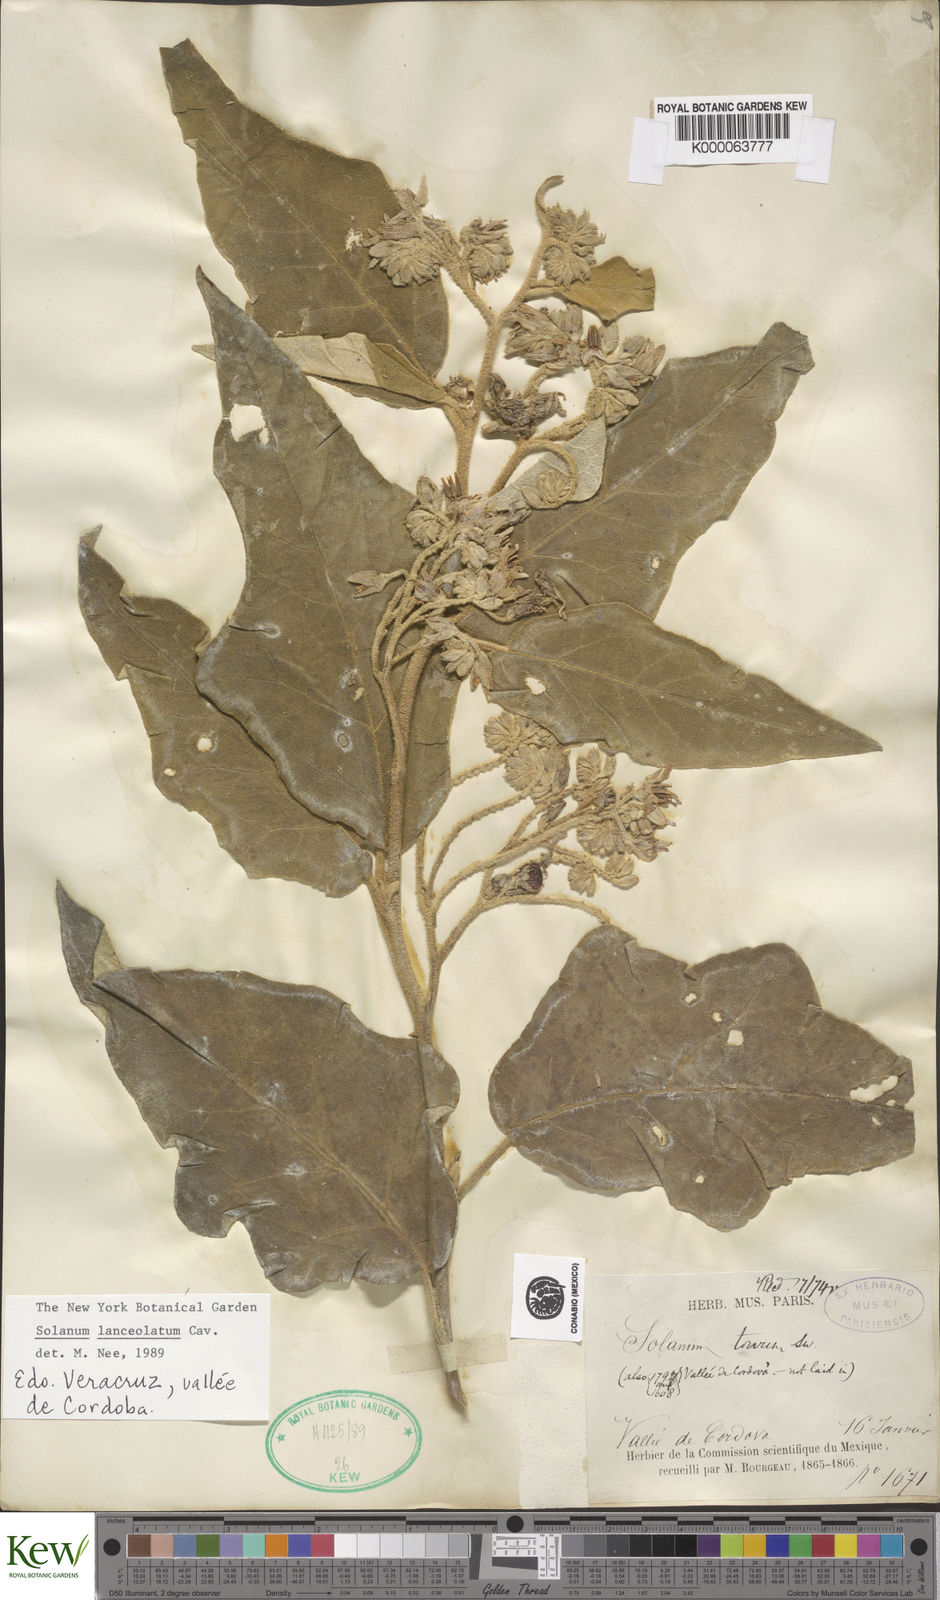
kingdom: Plantae
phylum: Tracheophyta
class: Magnoliopsida
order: Solanales
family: Solanaceae
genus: Solanum
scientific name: Solanum lanceolatum
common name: Orangeberry nightshade
